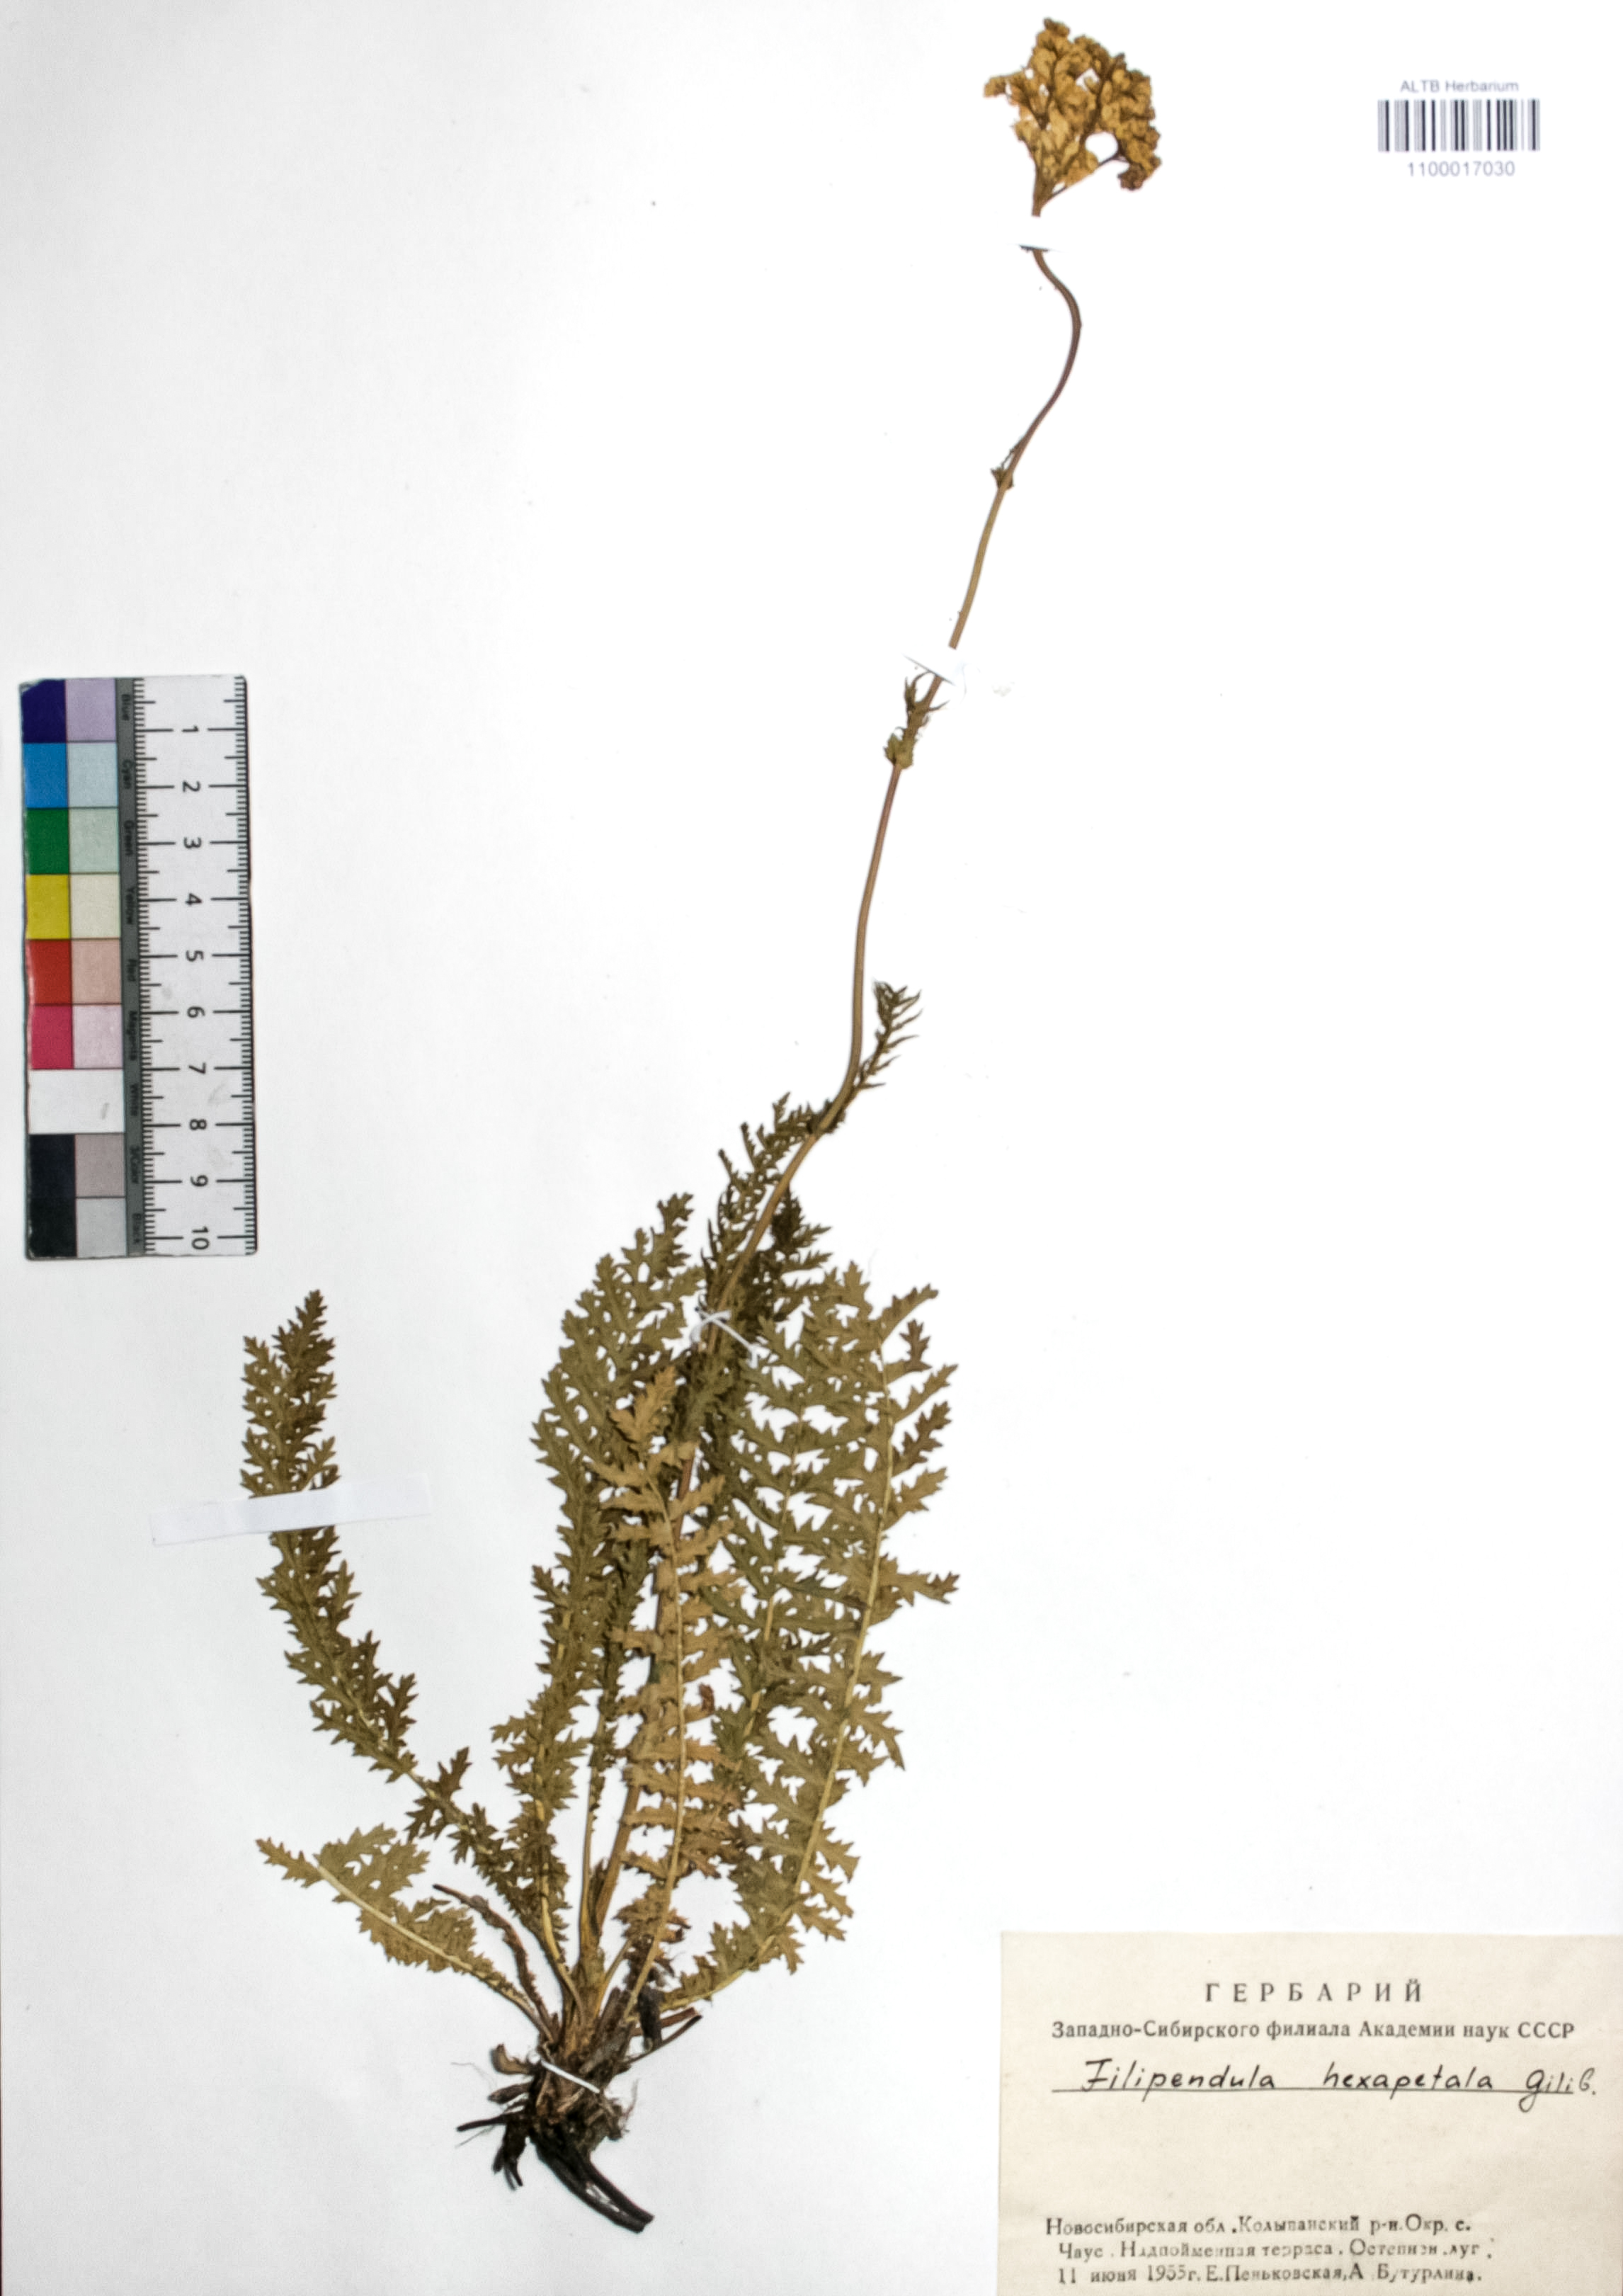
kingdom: Plantae
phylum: Tracheophyta
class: Magnoliopsida
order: Rosales
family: Rosaceae
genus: Filipendula
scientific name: Filipendula vulgaris
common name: Dropwort
